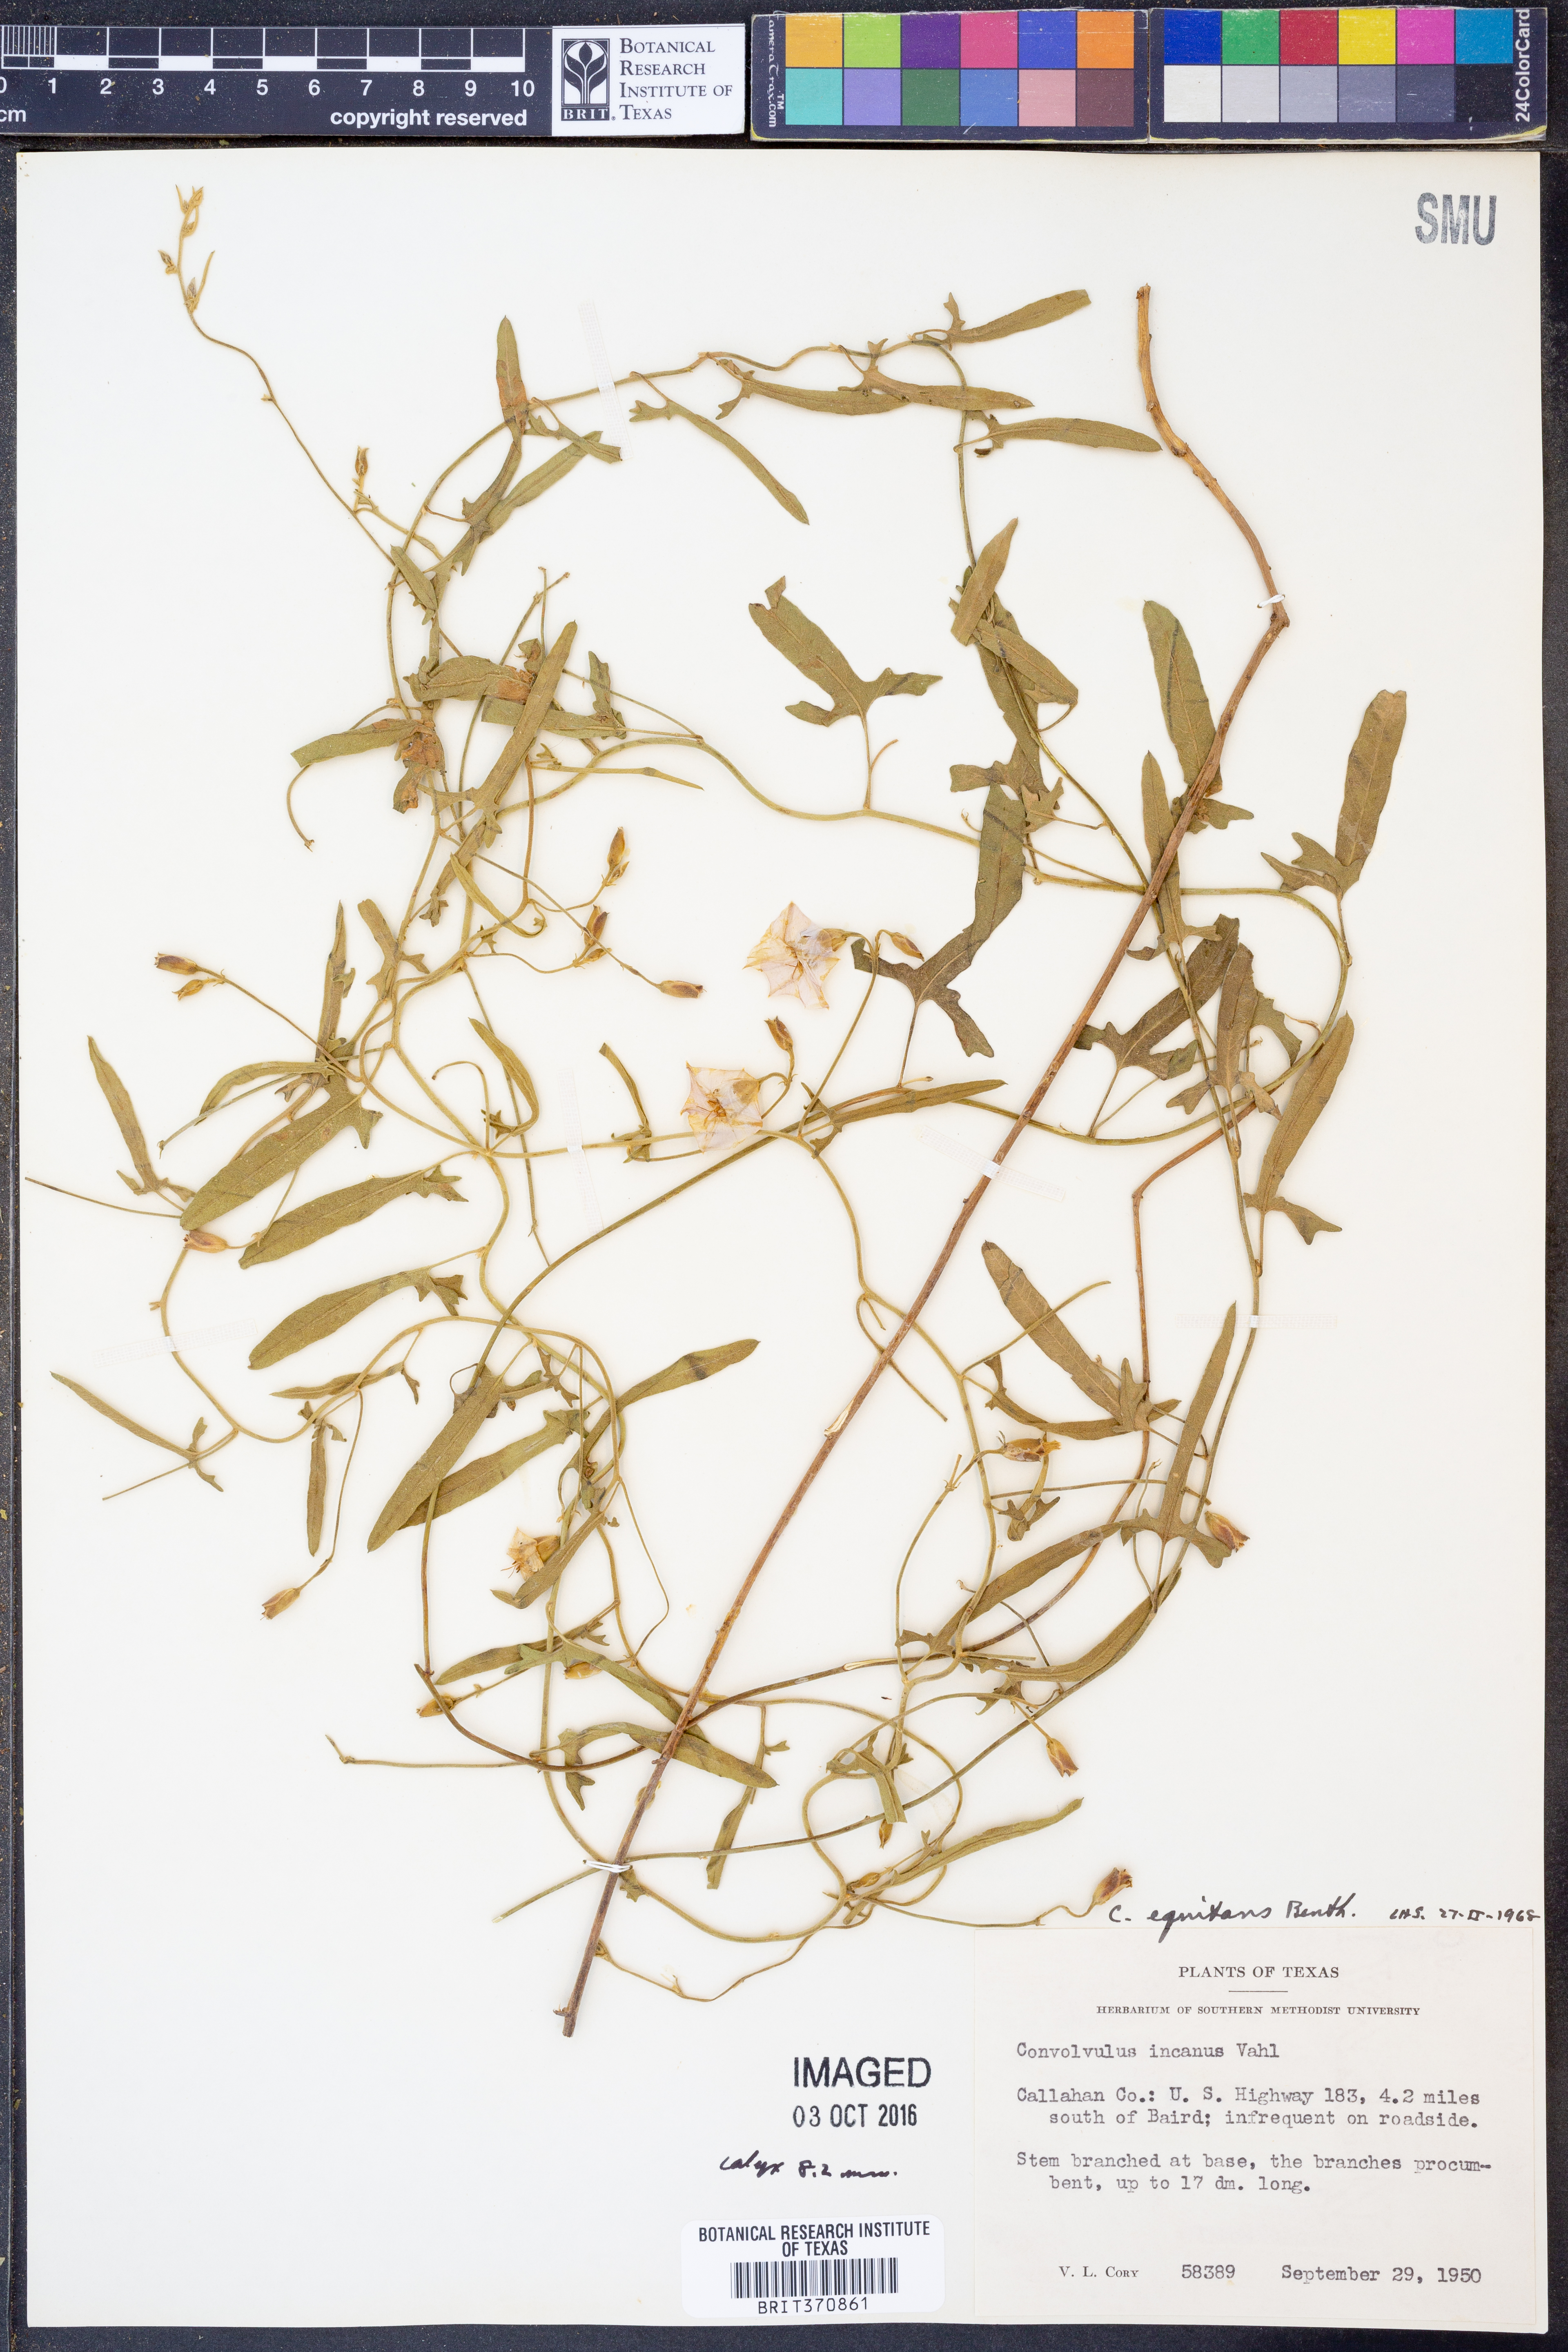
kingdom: Plantae
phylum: Tracheophyta
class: Magnoliopsida
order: Solanales
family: Convolvulaceae
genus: Convolvulus
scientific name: Convolvulus equitans
